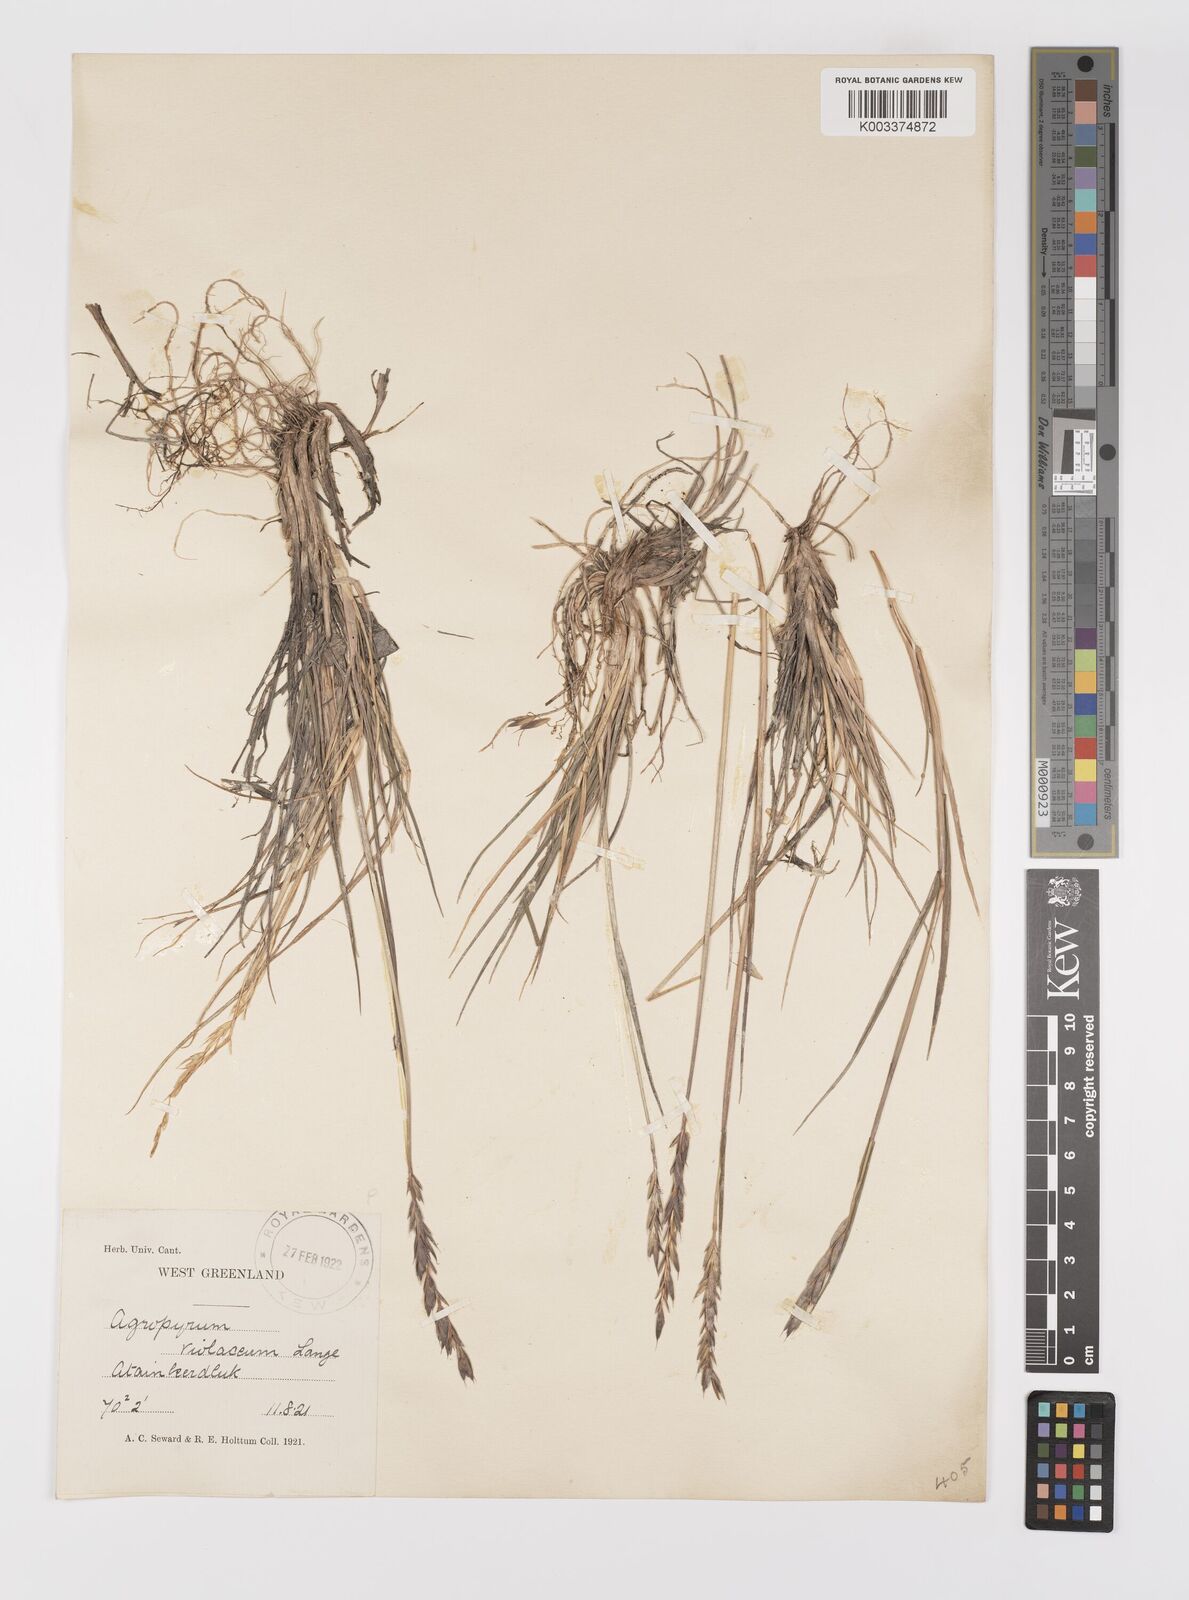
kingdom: Plantae
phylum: Tracheophyta
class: Liliopsida
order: Poales
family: Poaceae
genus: Elymus
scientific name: Elymus violaceus
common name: Arctic wheatgrass
